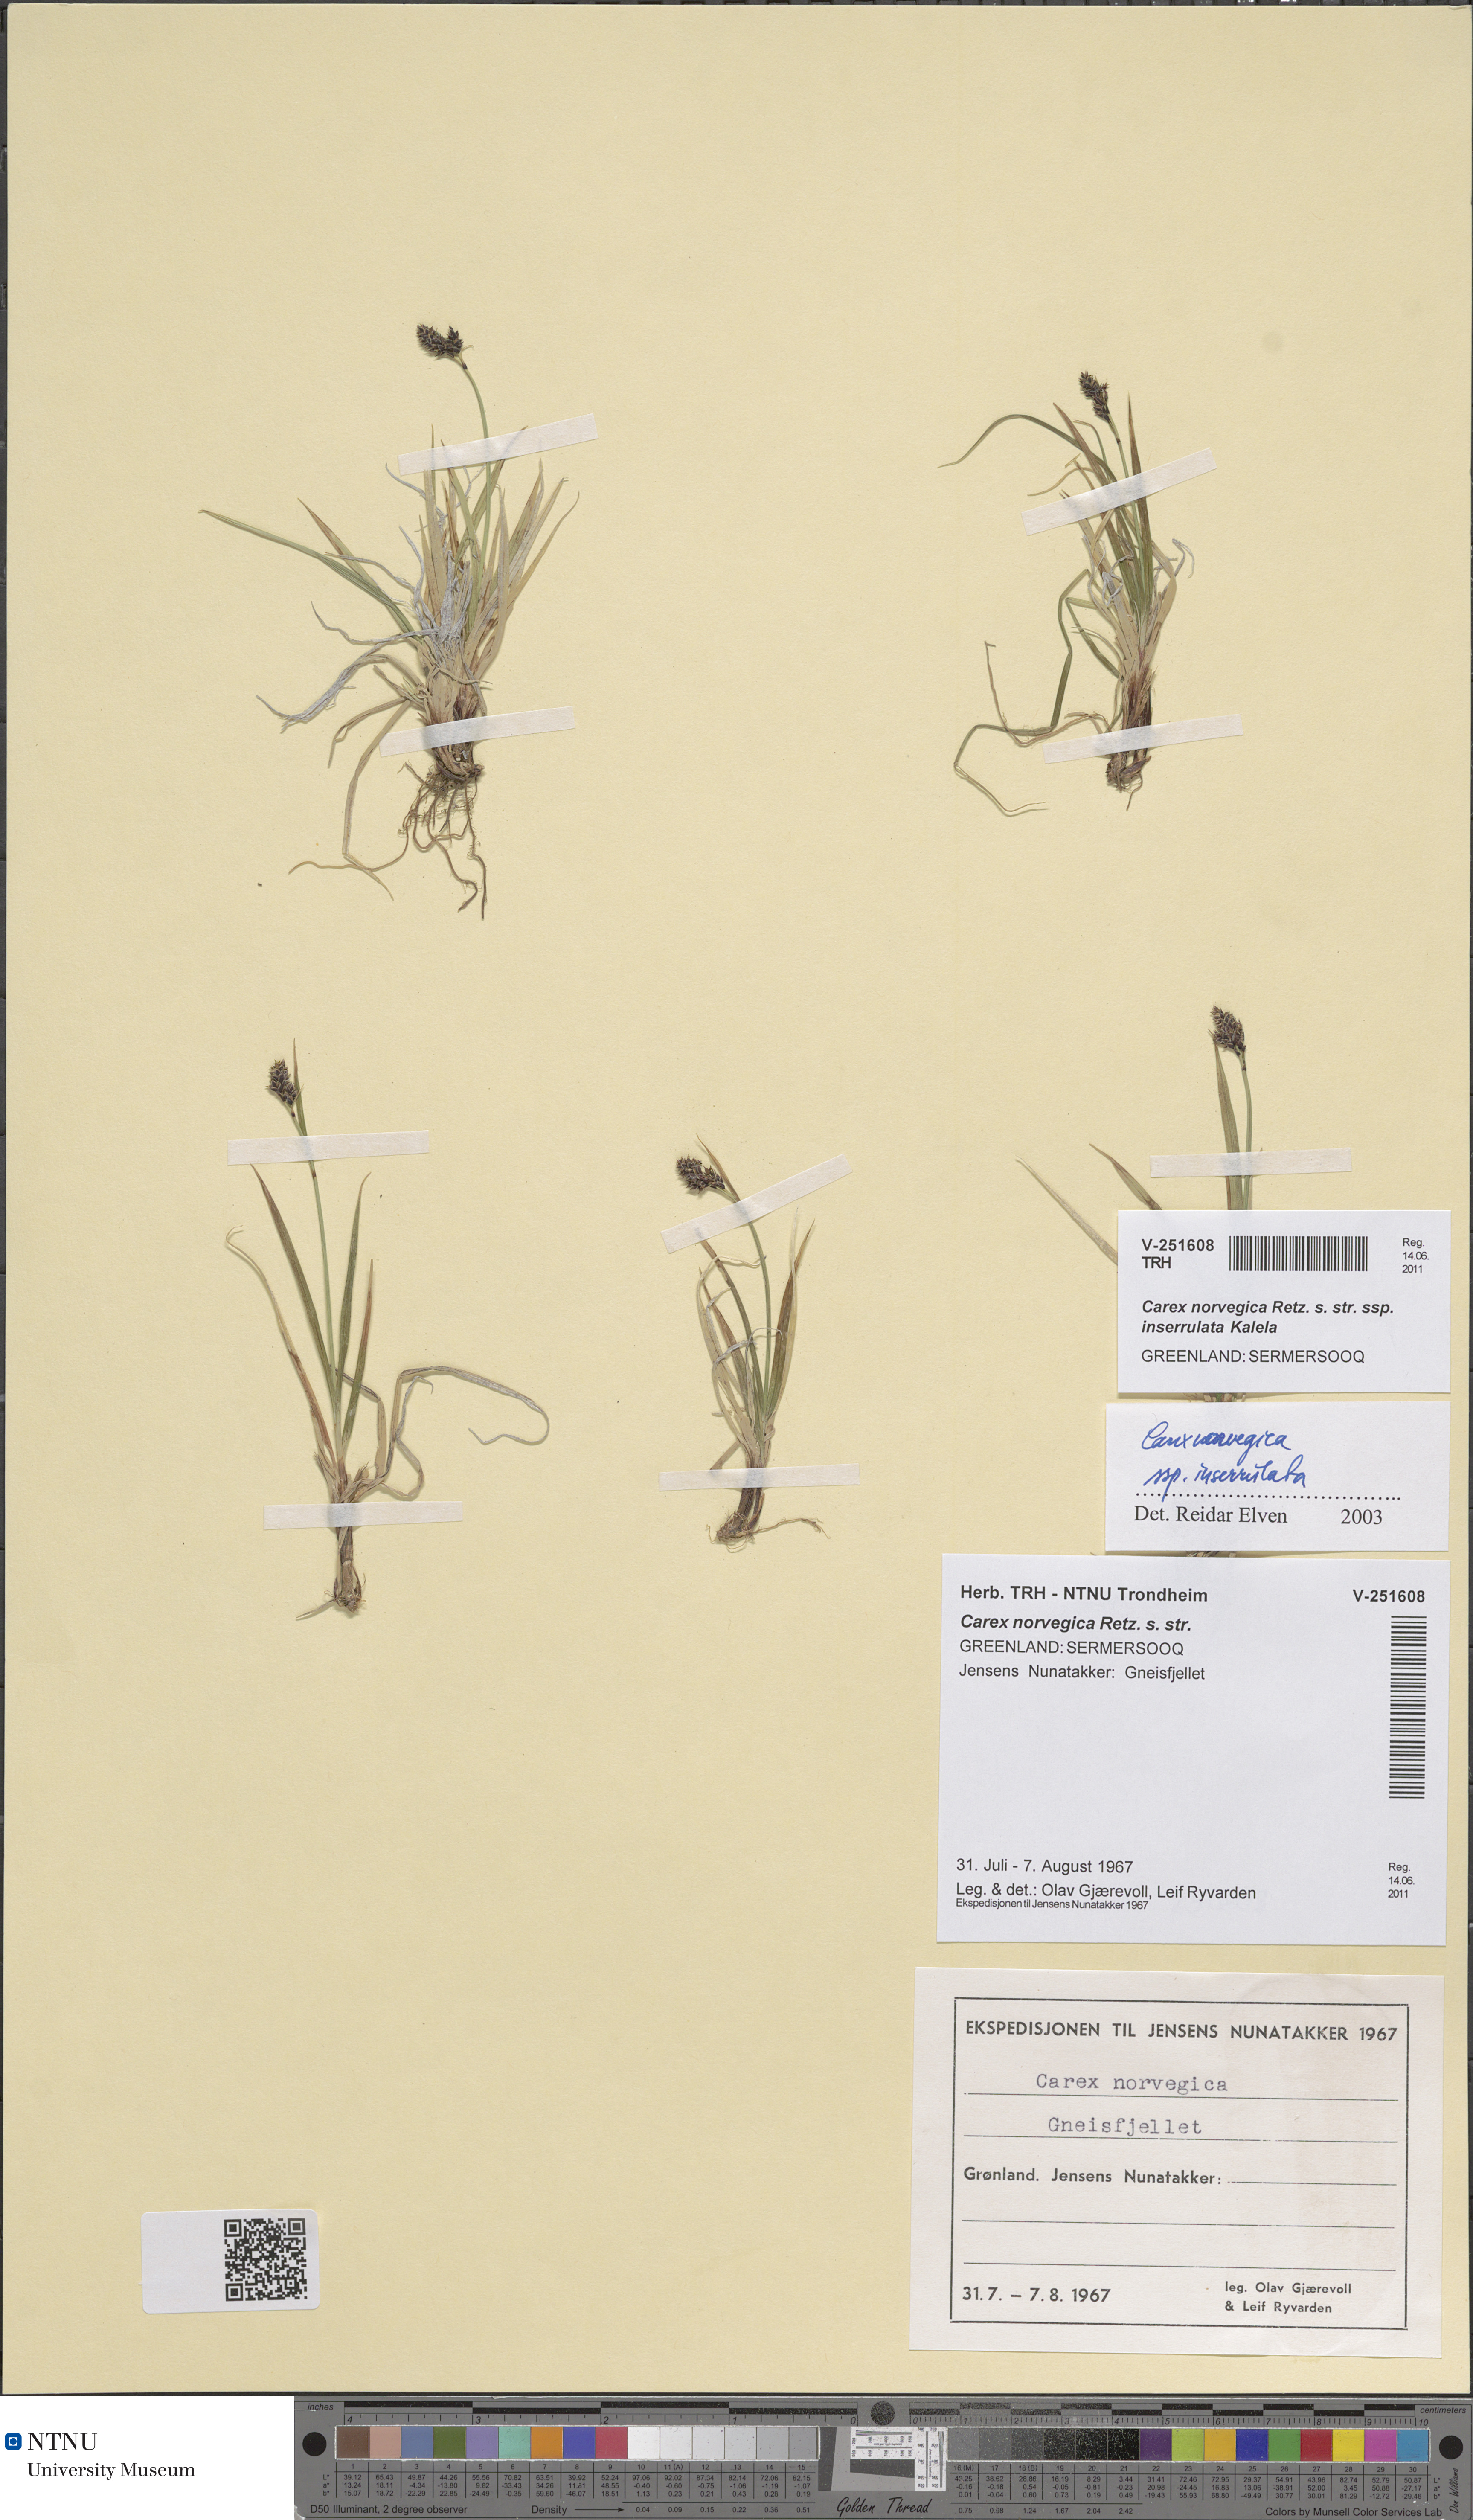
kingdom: Plantae
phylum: Tracheophyta
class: Liliopsida
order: Poales
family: Cyperaceae
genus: Carex
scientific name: Carex norvegica
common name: Close-headed alpine-sedge
